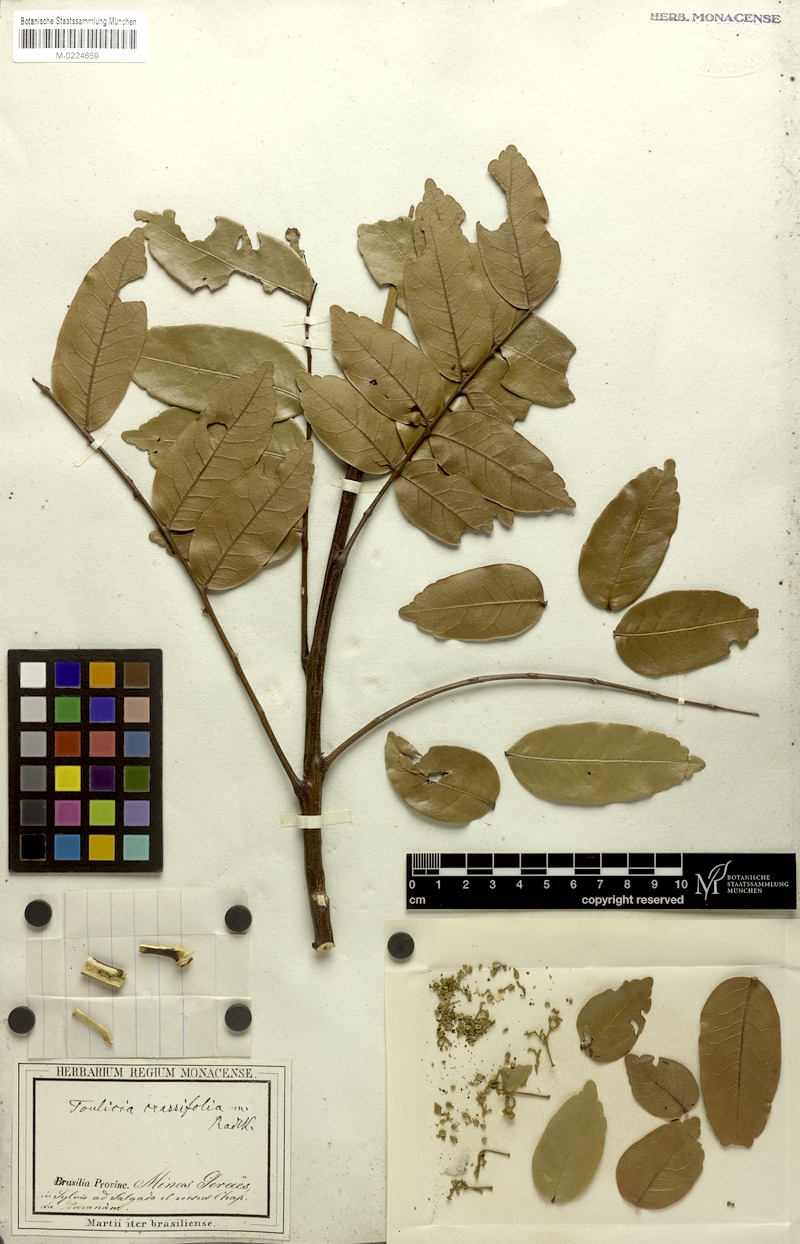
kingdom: Plantae
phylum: Tracheophyta
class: Magnoliopsida
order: Sapindales
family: Sapindaceae
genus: Toulicia
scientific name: Toulicia crassifolia
